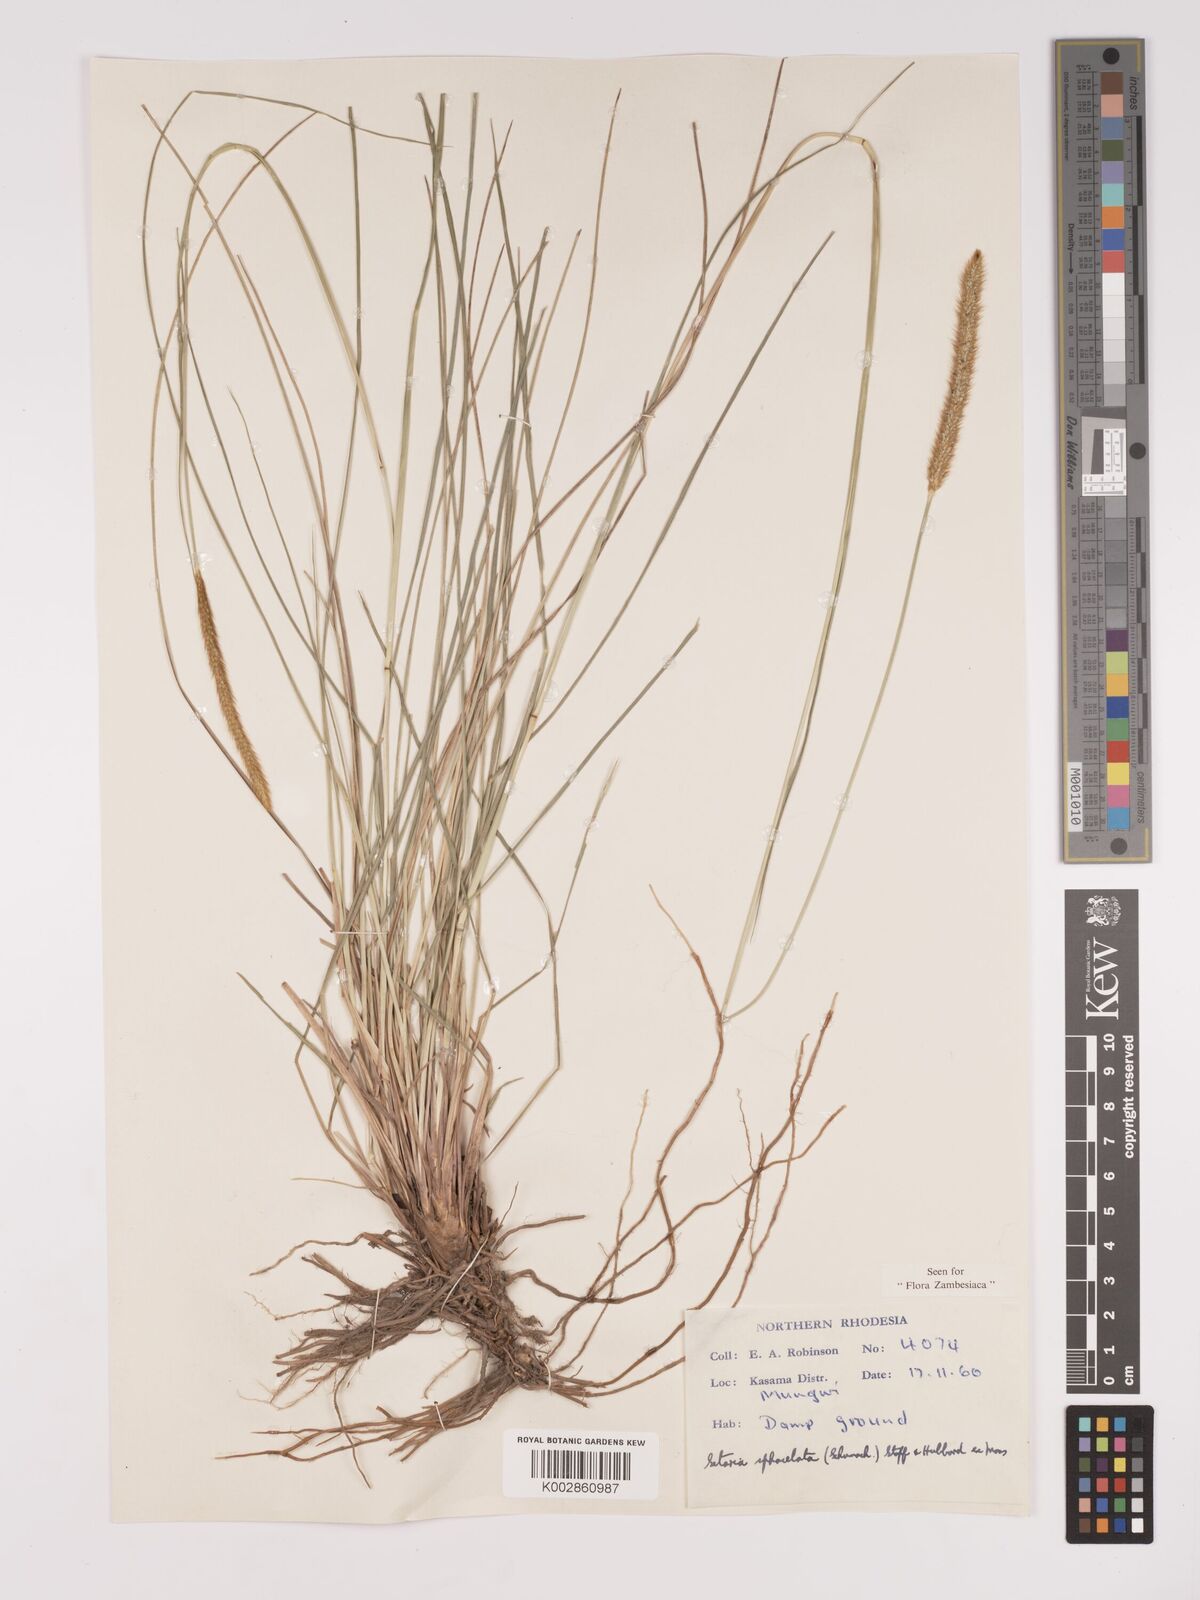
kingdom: Plantae
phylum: Tracheophyta
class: Liliopsida
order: Poales
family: Poaceae
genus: Setaria
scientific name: Setaria
